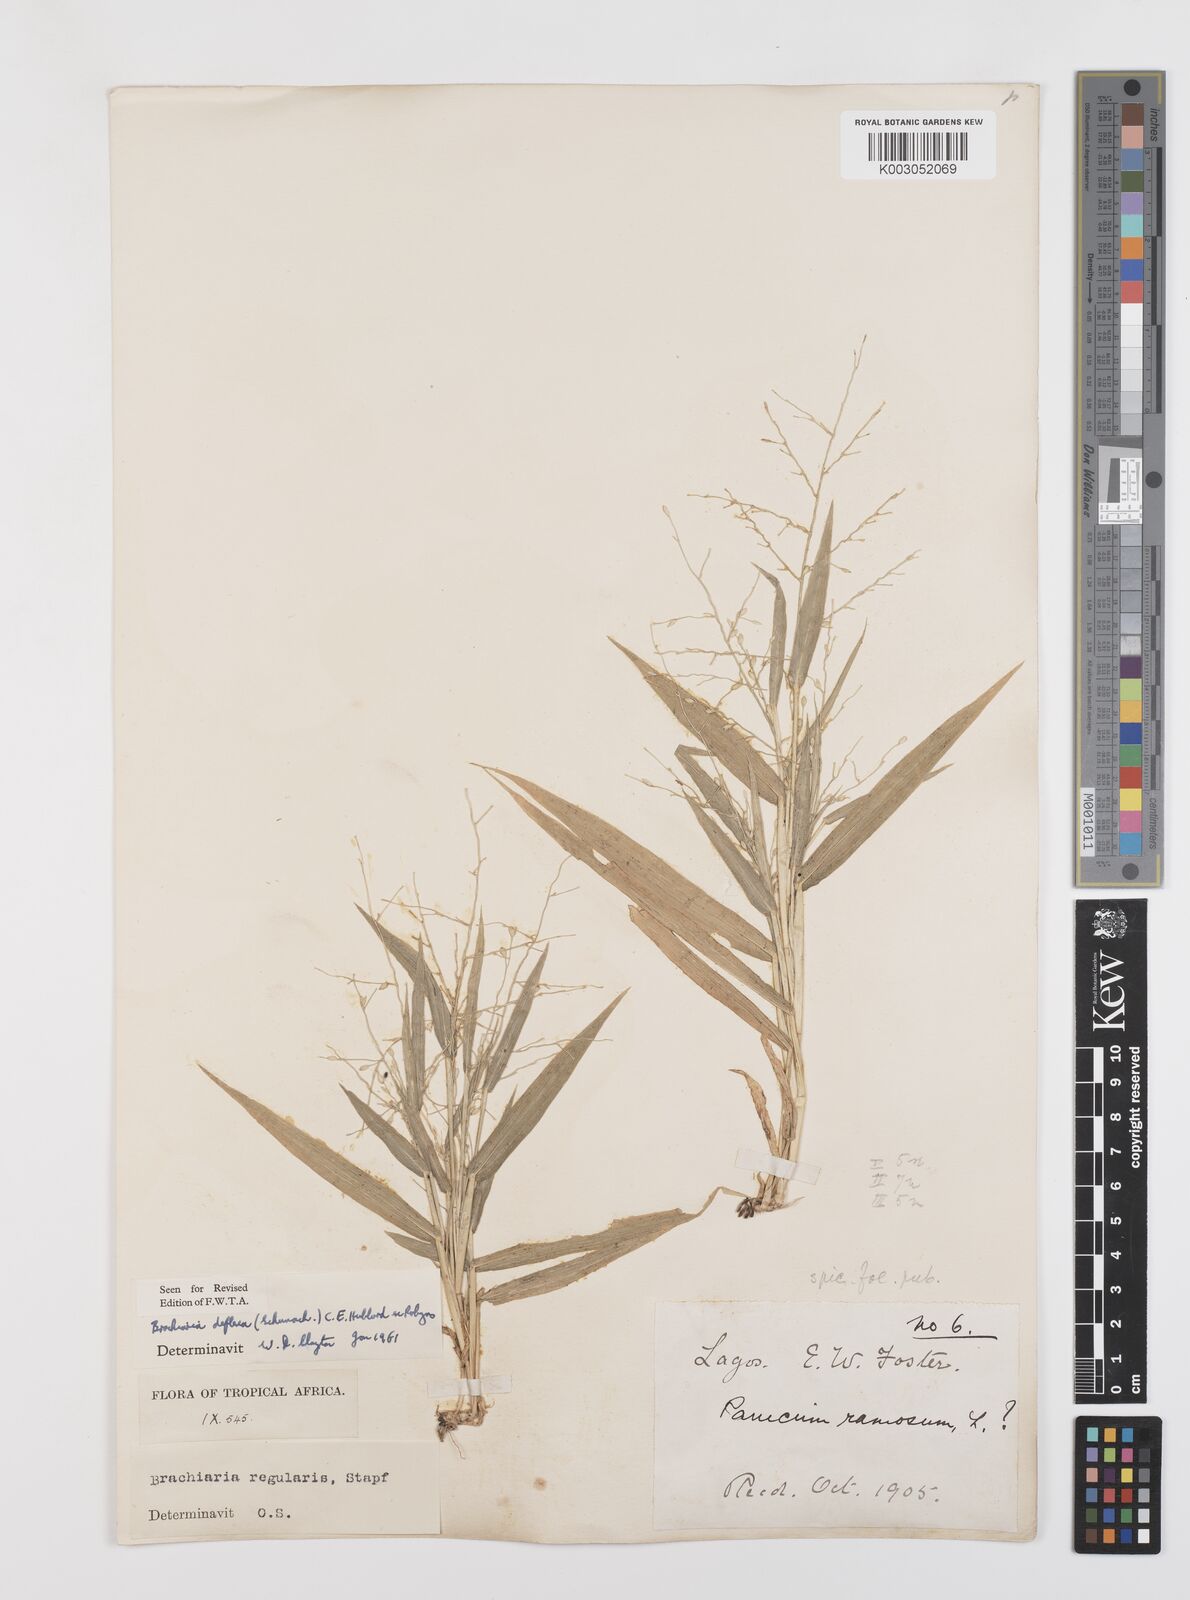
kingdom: Plantae
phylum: Tracheophyta
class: Liliopsida
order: Poales
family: Poaceae
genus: Urochloa
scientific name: Urochloa deflexa
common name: Guinea millet
